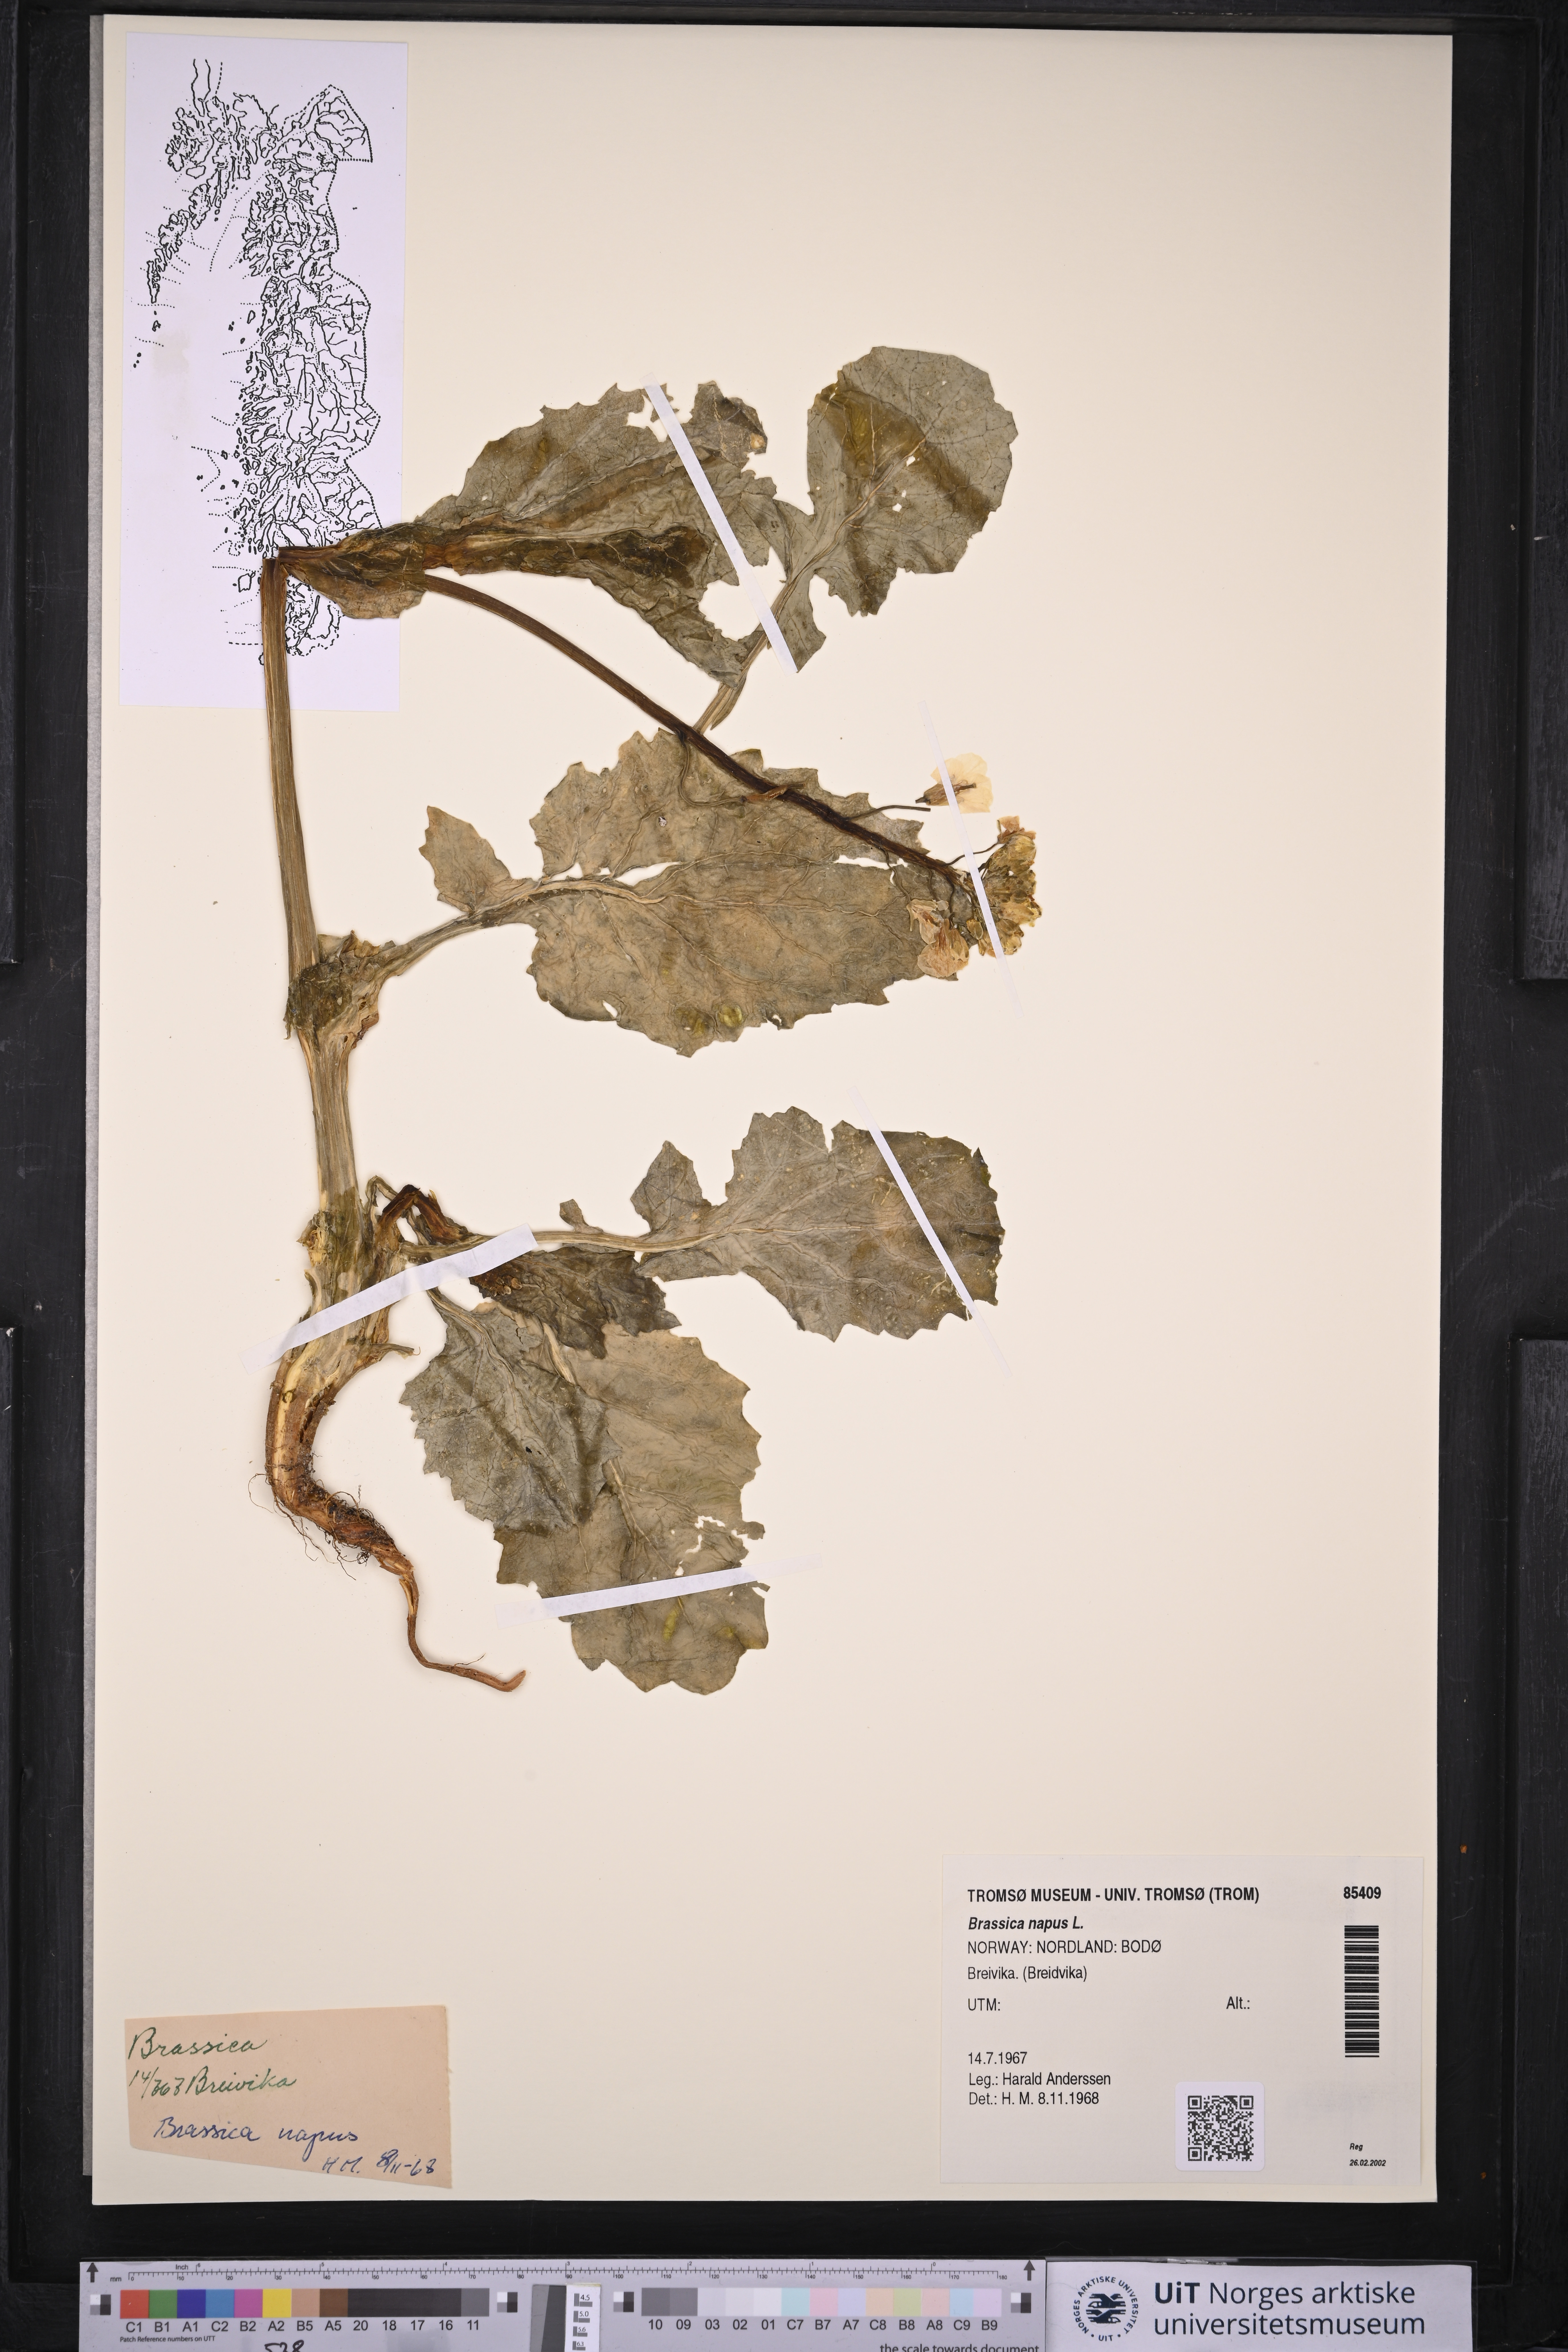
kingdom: Plantae
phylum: Tracheophyta
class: Magnoliopsida
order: Brassicales
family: Brassicaceae
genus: Brassica
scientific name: Brassica napus
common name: Rape
